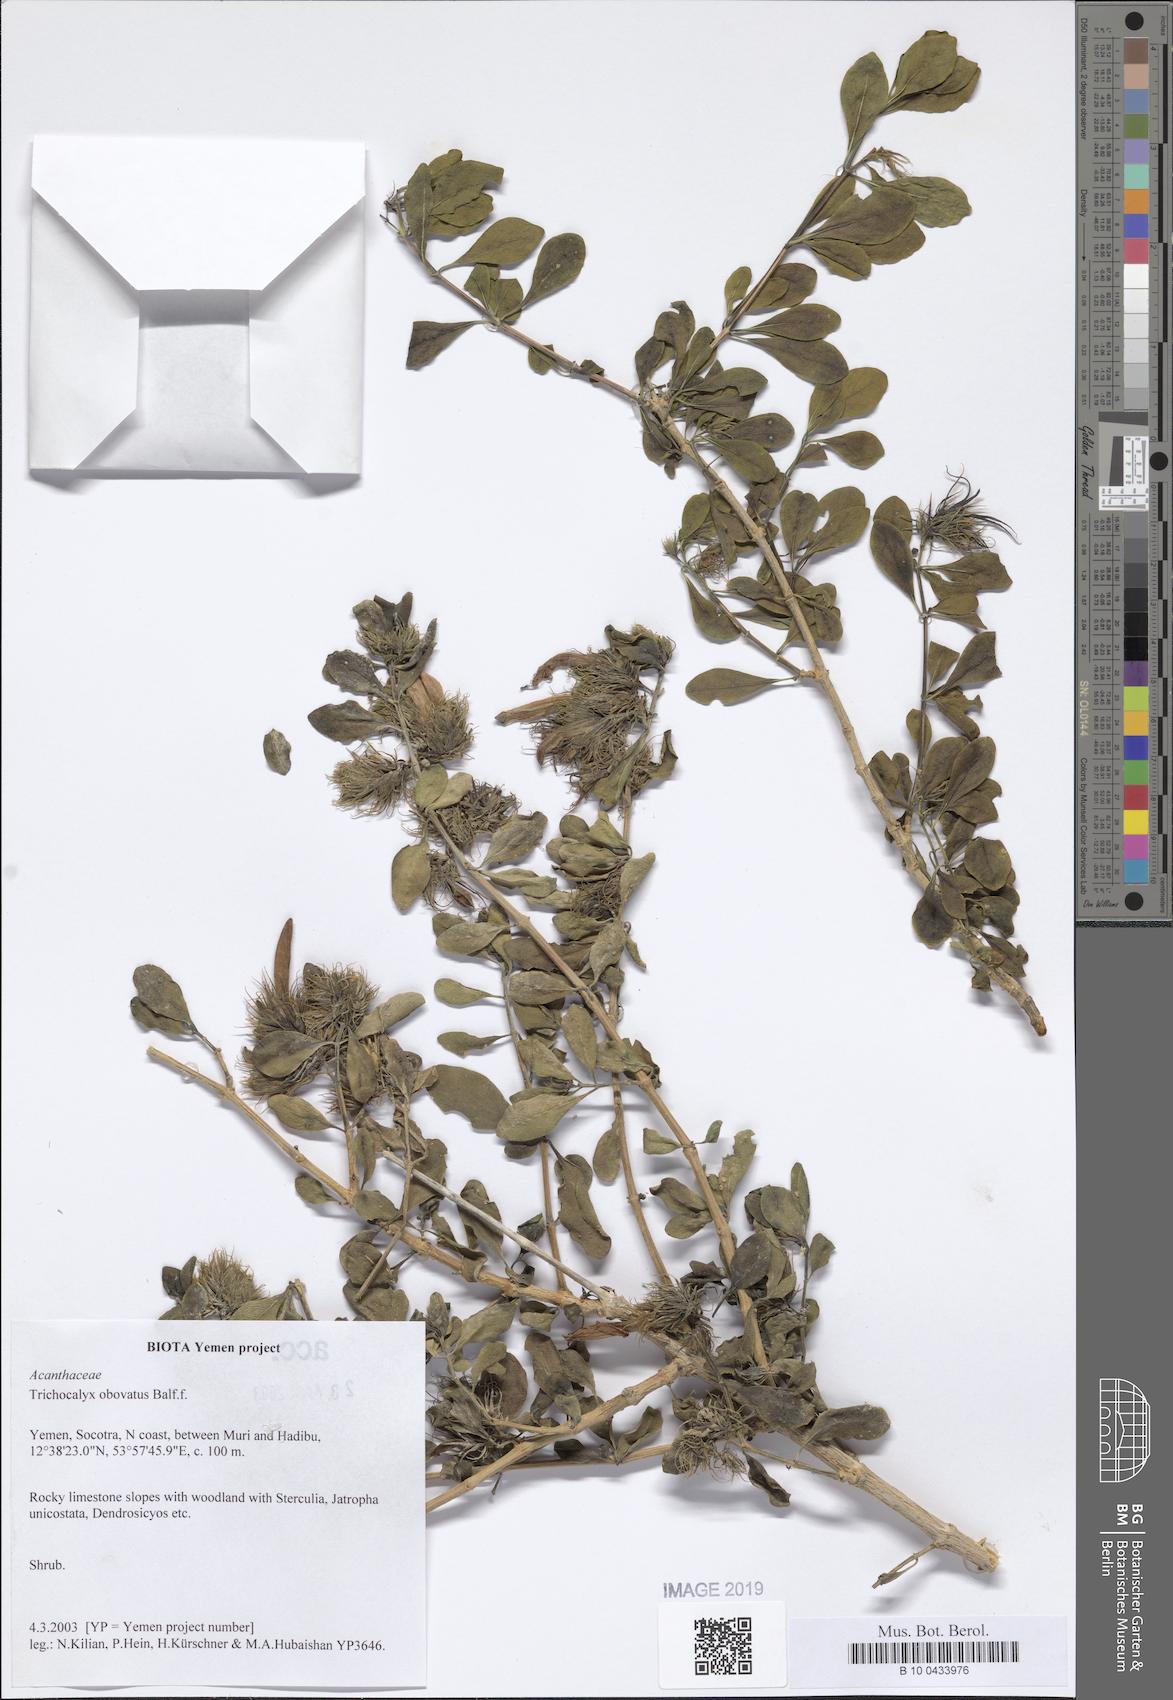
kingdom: Plantae
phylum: Tracheophyta
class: Magnoliopsida
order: Lamiales
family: Acanthaceae
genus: Trichocalyx
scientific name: Trichocalyx obovatus
